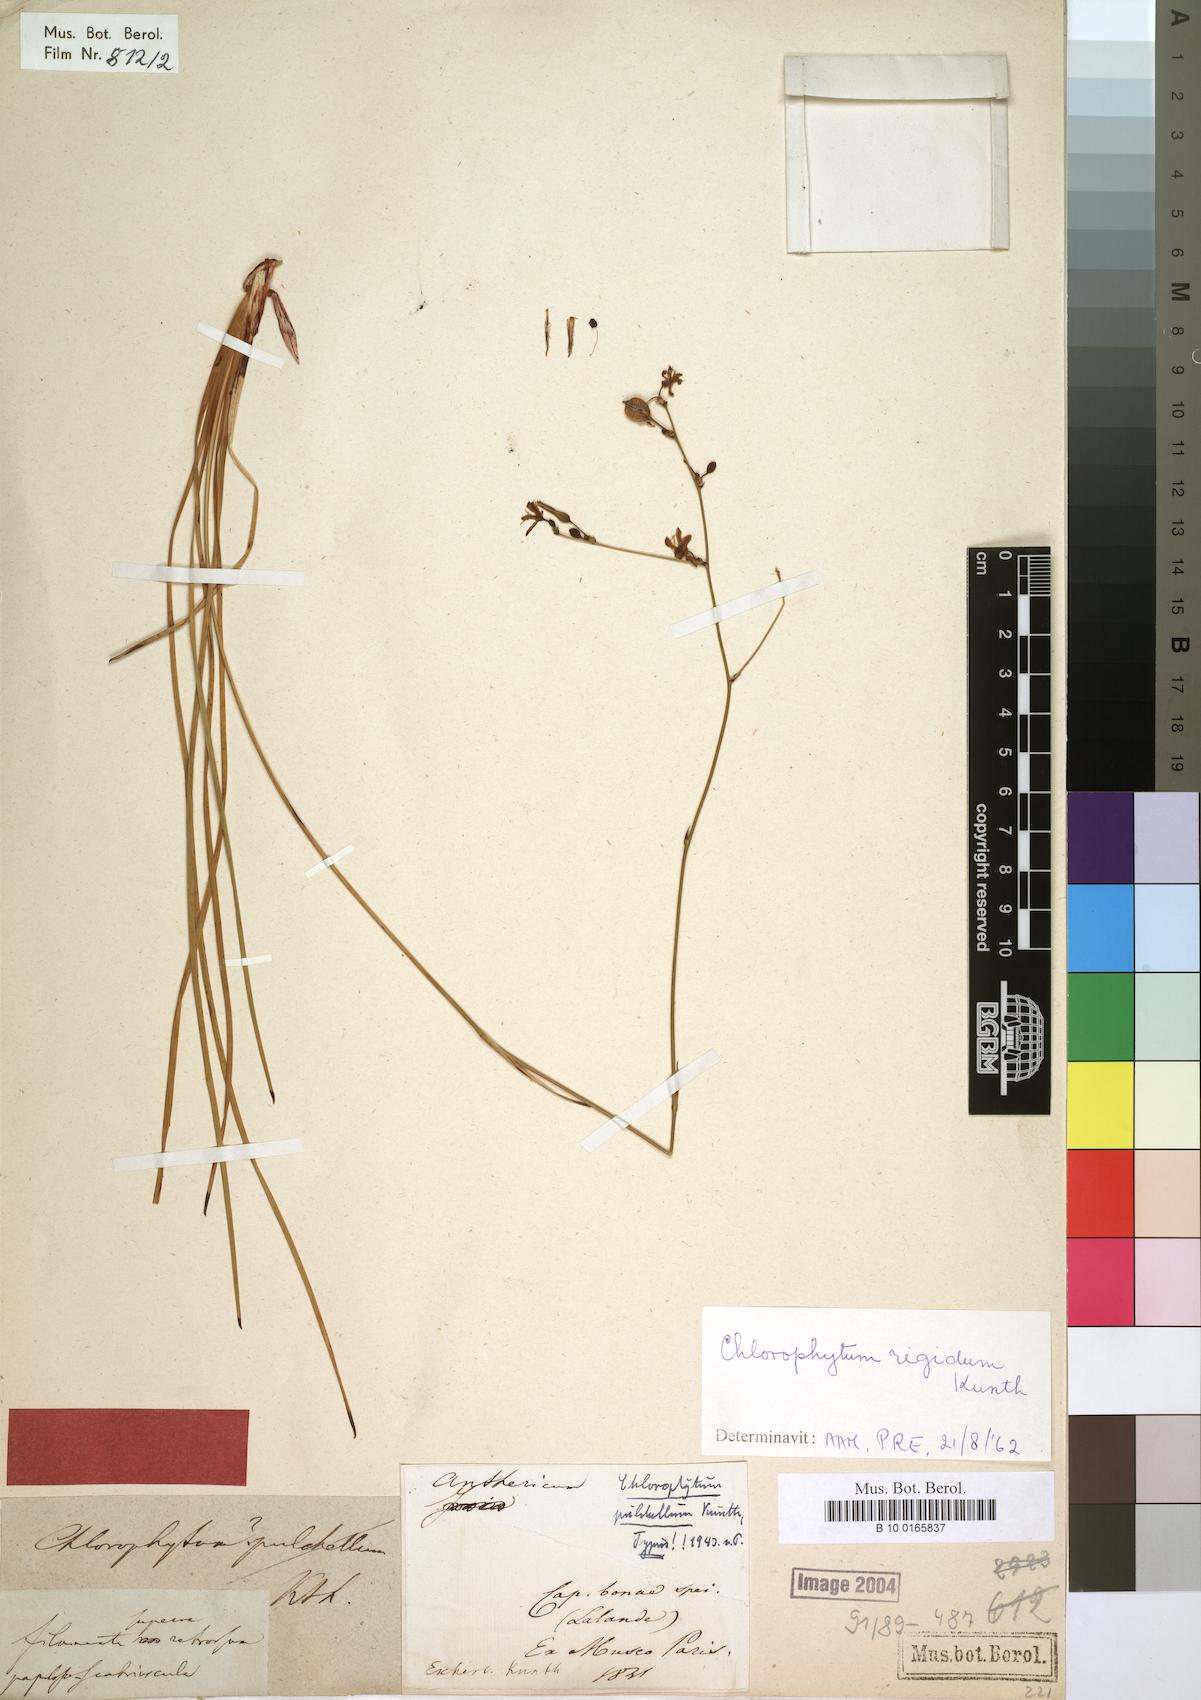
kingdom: Plantae
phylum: Tracheophyta
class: Liliopsida
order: Asparagales
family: Asparagaceae
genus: Chlorophytum
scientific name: Chlorophytum rigidum
